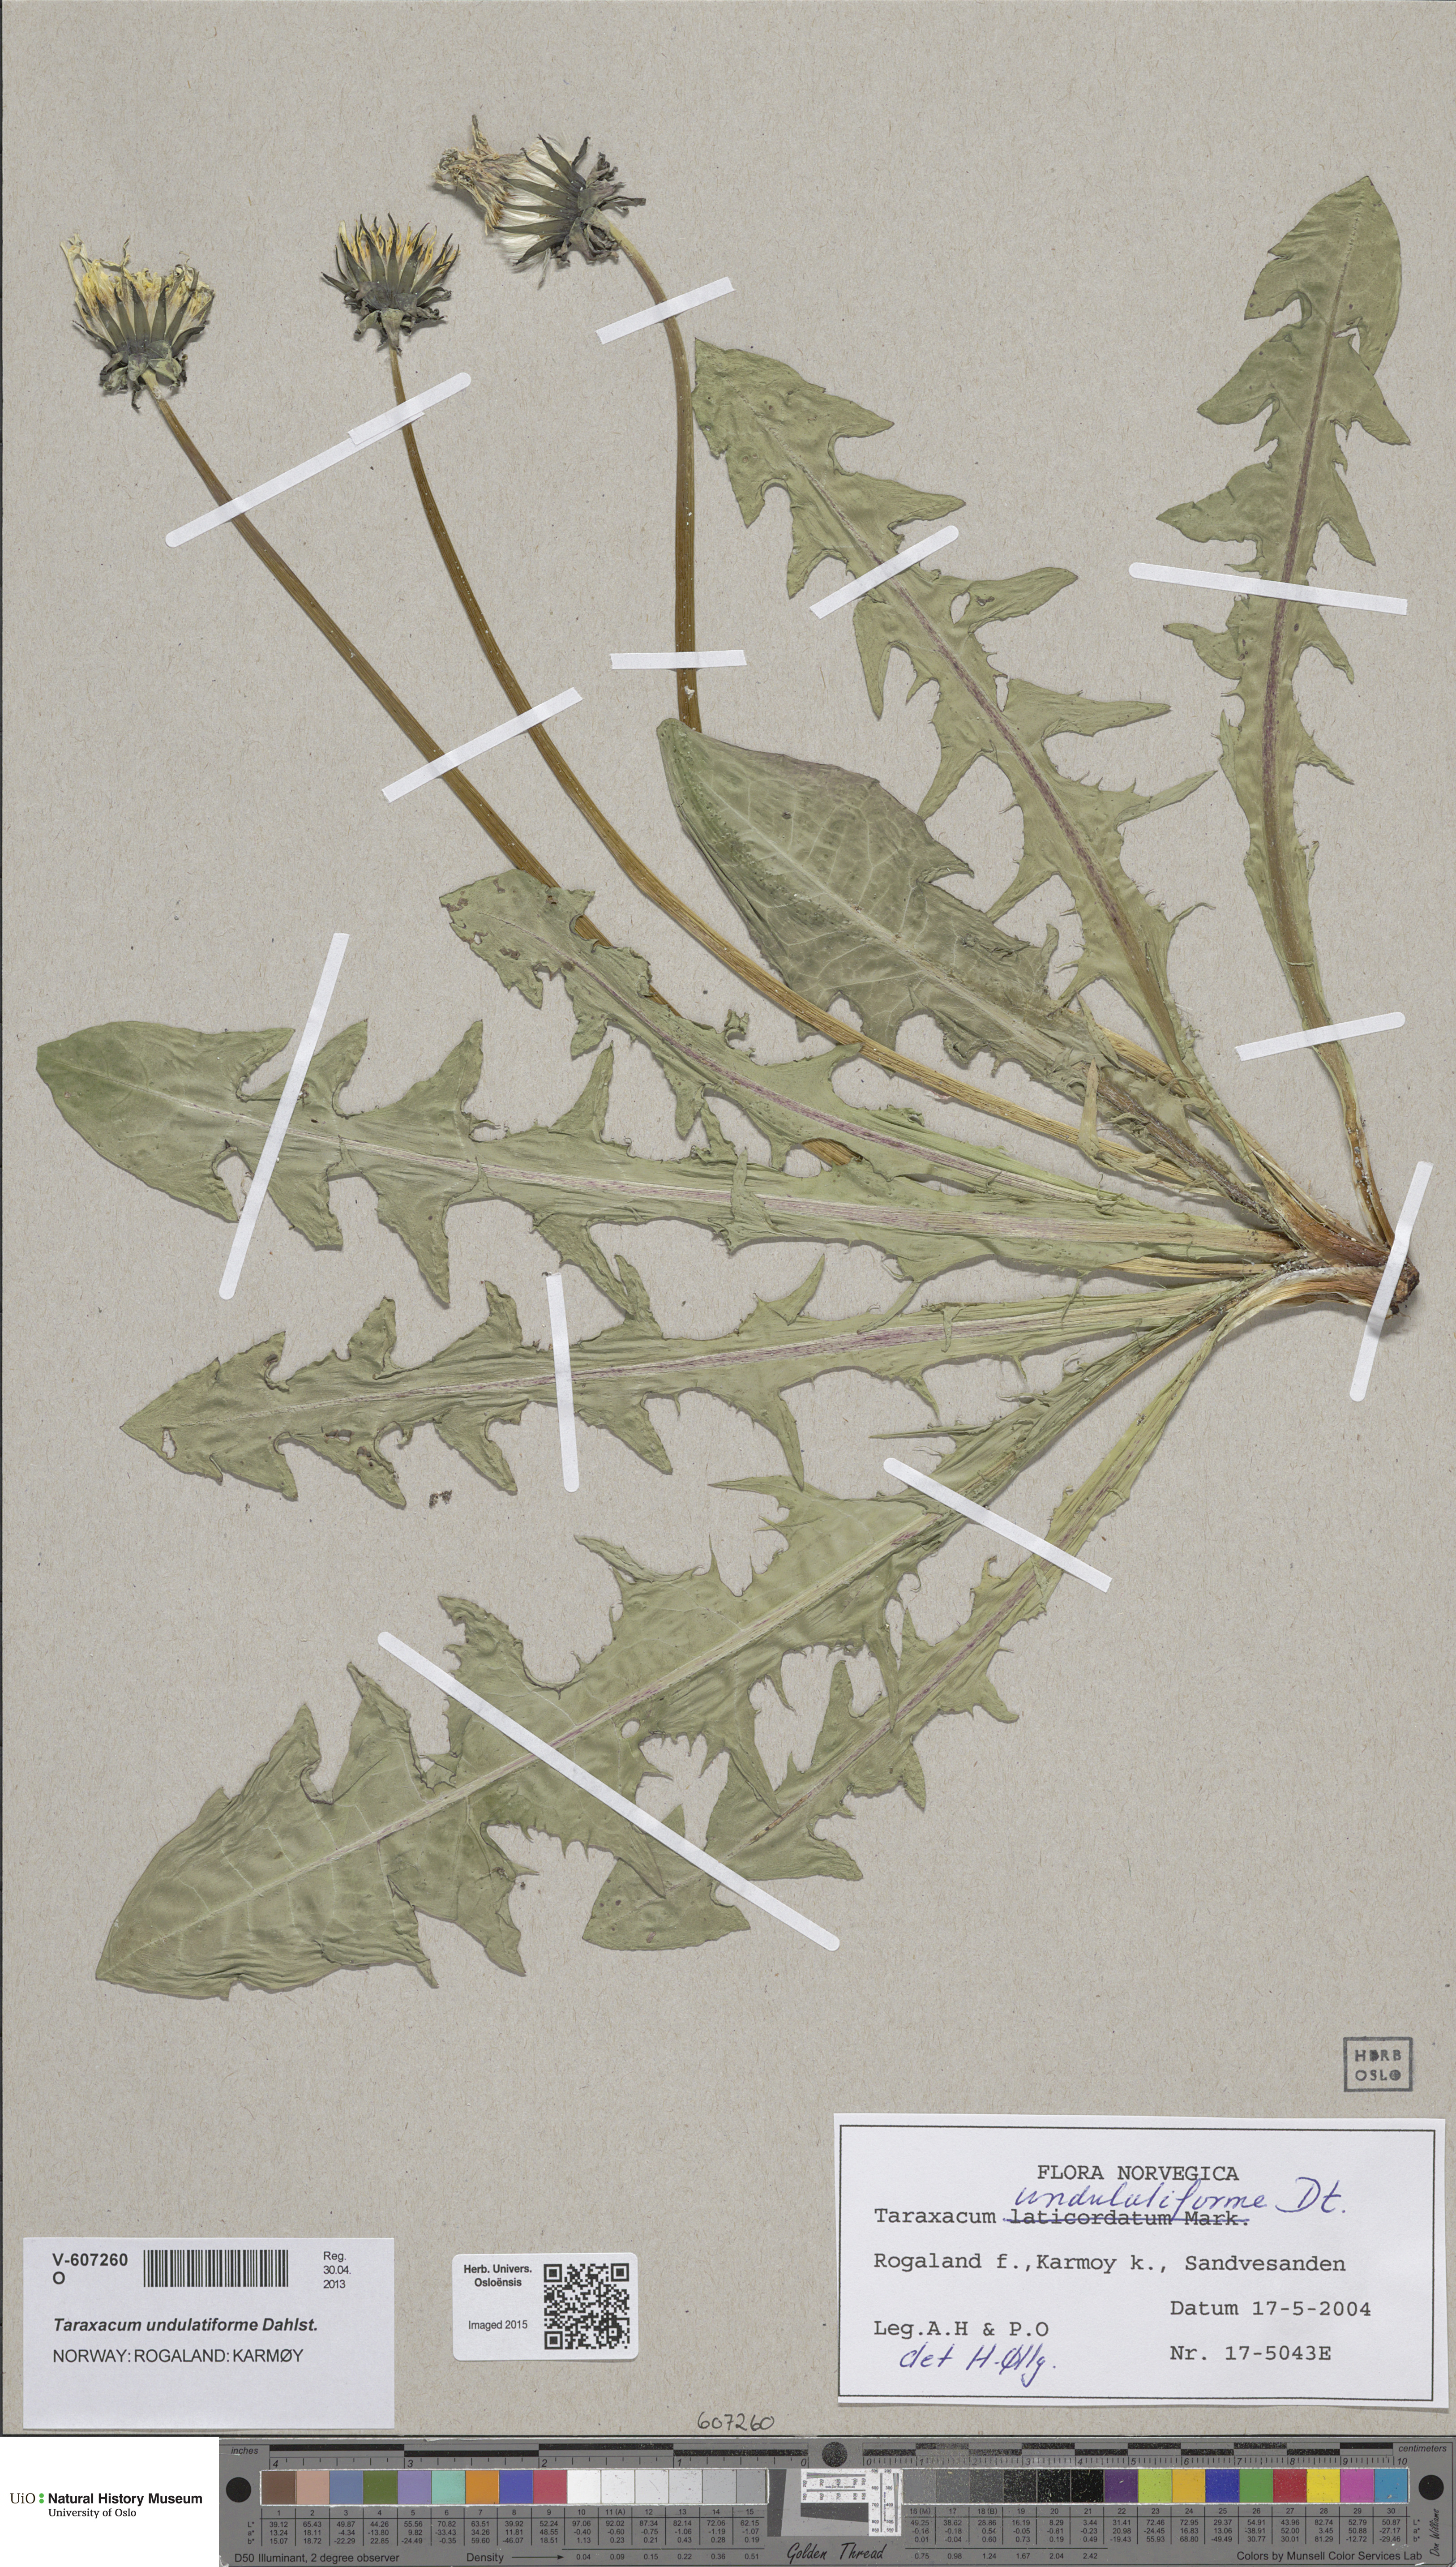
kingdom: Plantae
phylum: Tracheophyta
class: Magnoliopsida
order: Asterales
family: Asteraceae
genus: Taraxacum
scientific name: Taraxacum undulatiforme
